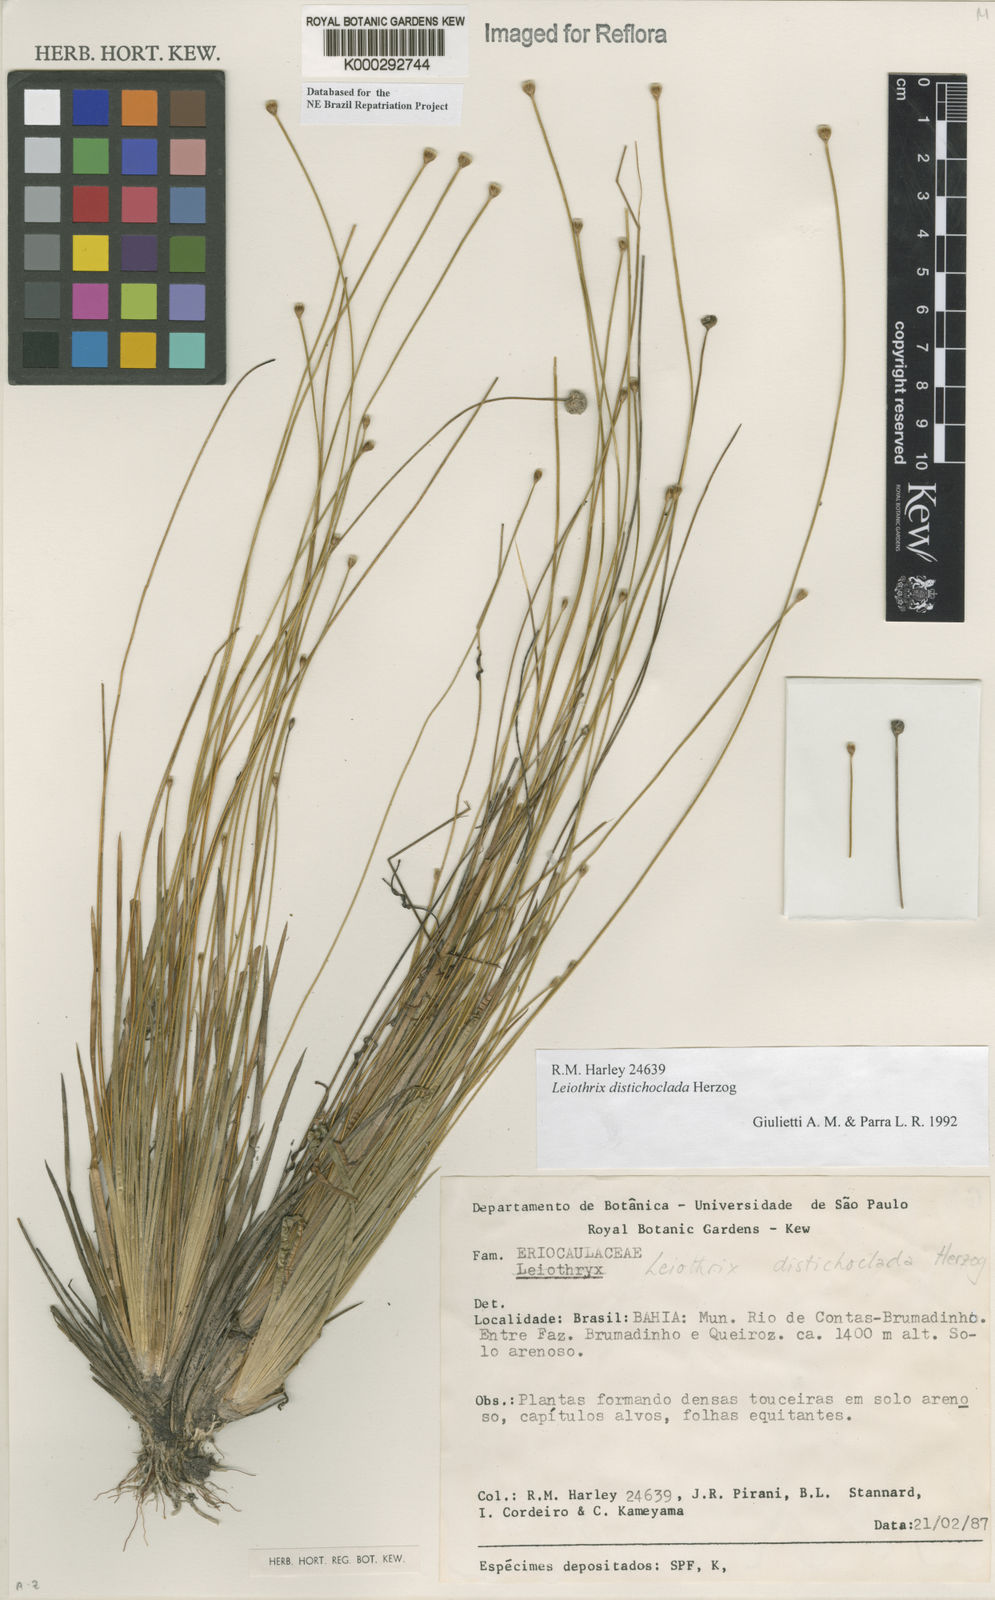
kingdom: Plantae
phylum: Tracheophyta
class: Liliopsida
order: Poales
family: Eriocaulaceae
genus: Leiothrix
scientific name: Leiothrix distichoclada
